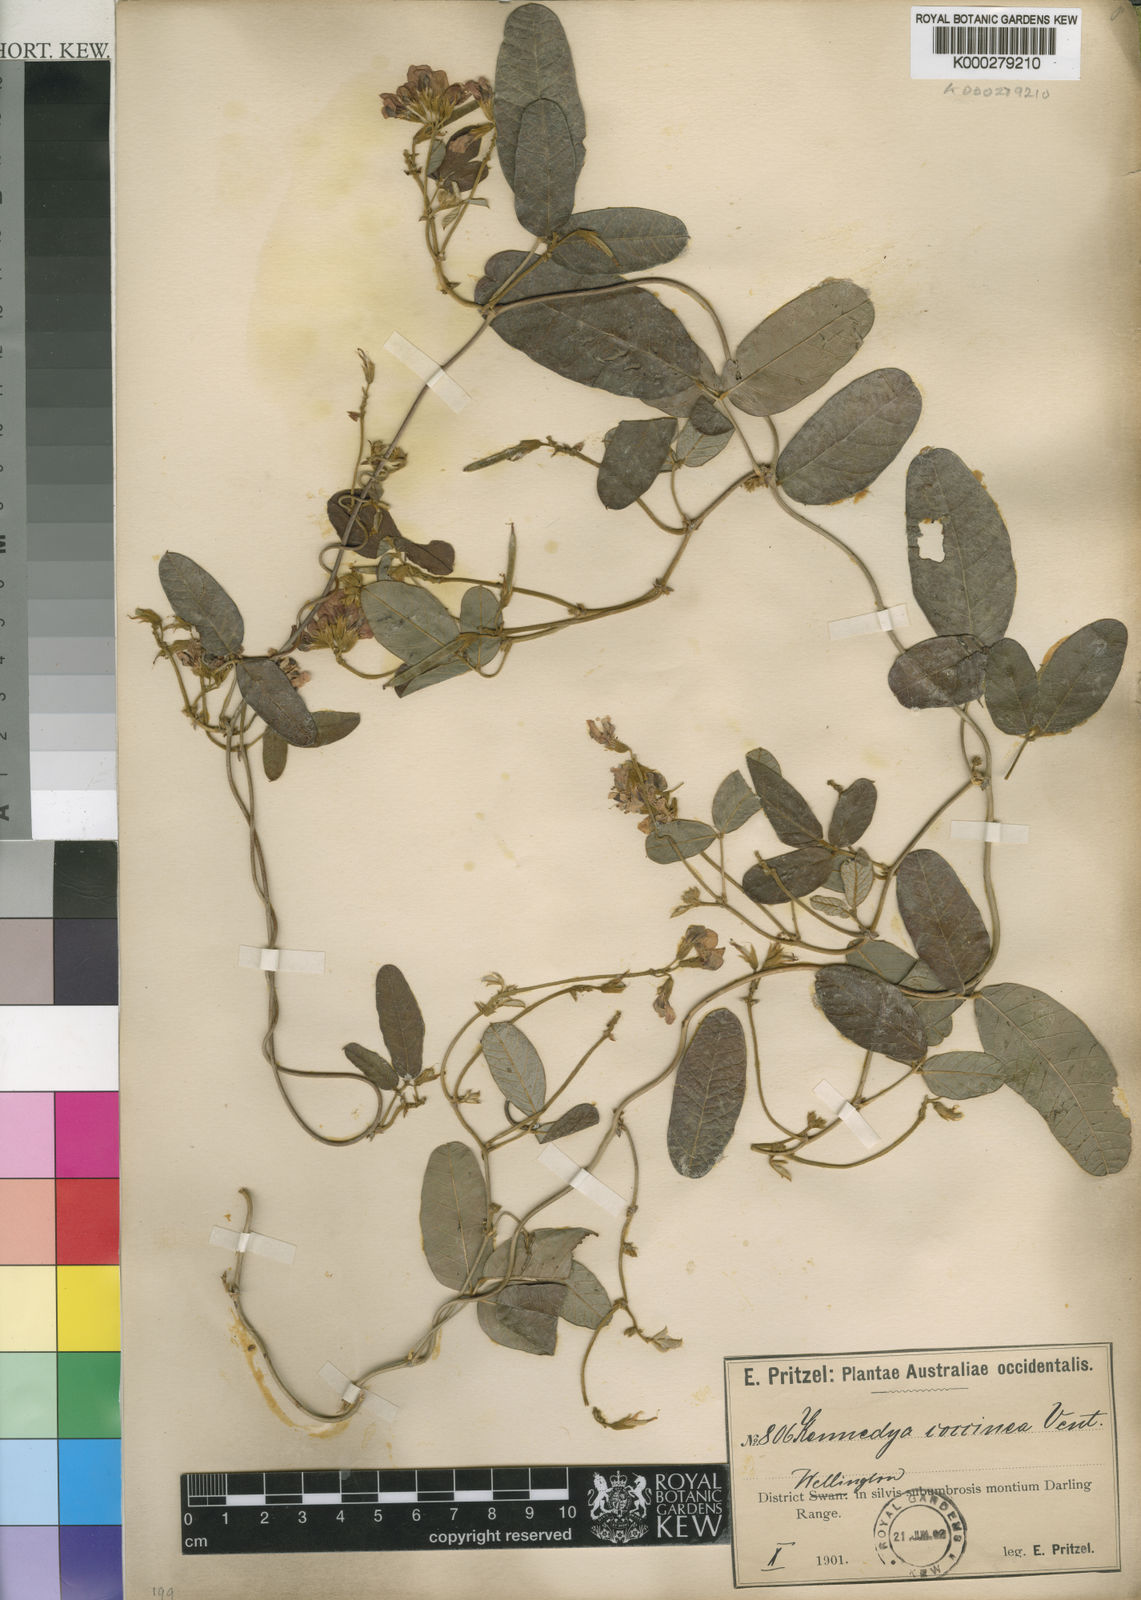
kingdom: Plantae
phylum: Tracheophyta
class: Magnoliopsida
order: Fabales
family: Fabaceae
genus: Kennedia
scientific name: Kennedia coccinea
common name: Coralvine
